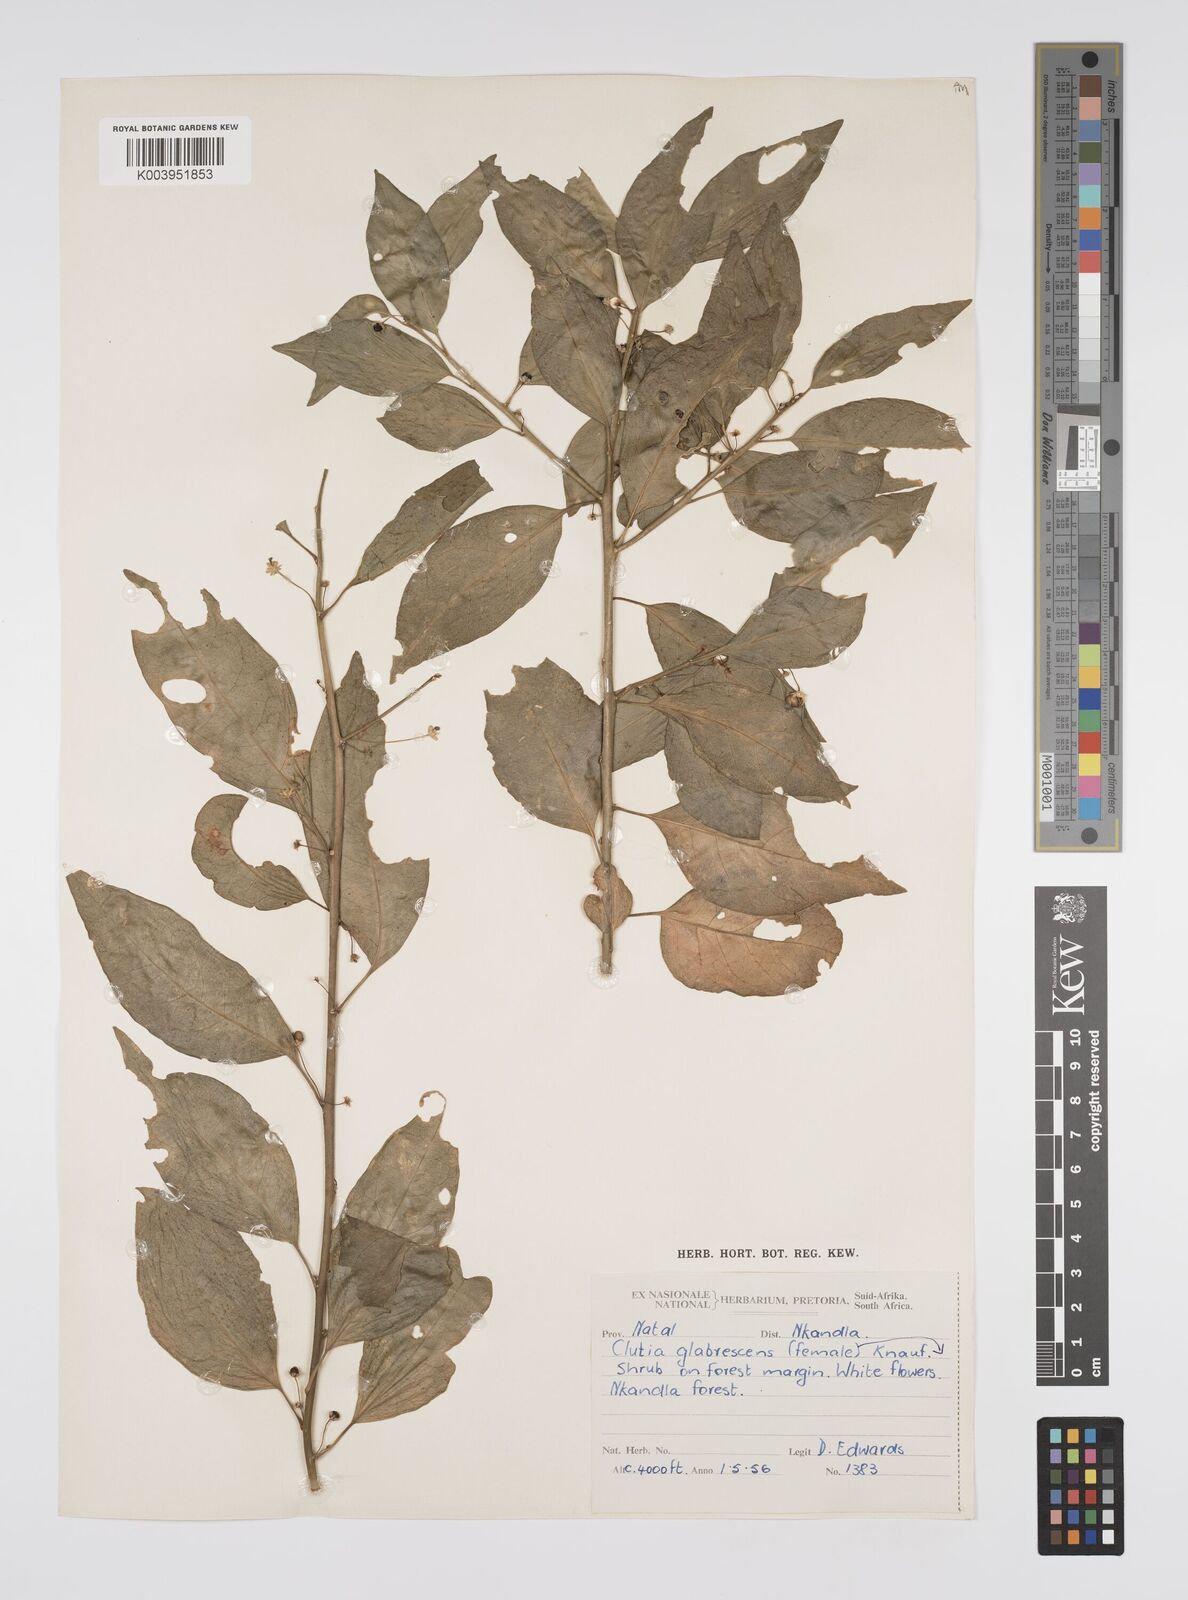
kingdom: Plantae
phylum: Tracheophyta
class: Magnoliopsida
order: Malpighiales
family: Peraceae
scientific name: Peraceae
